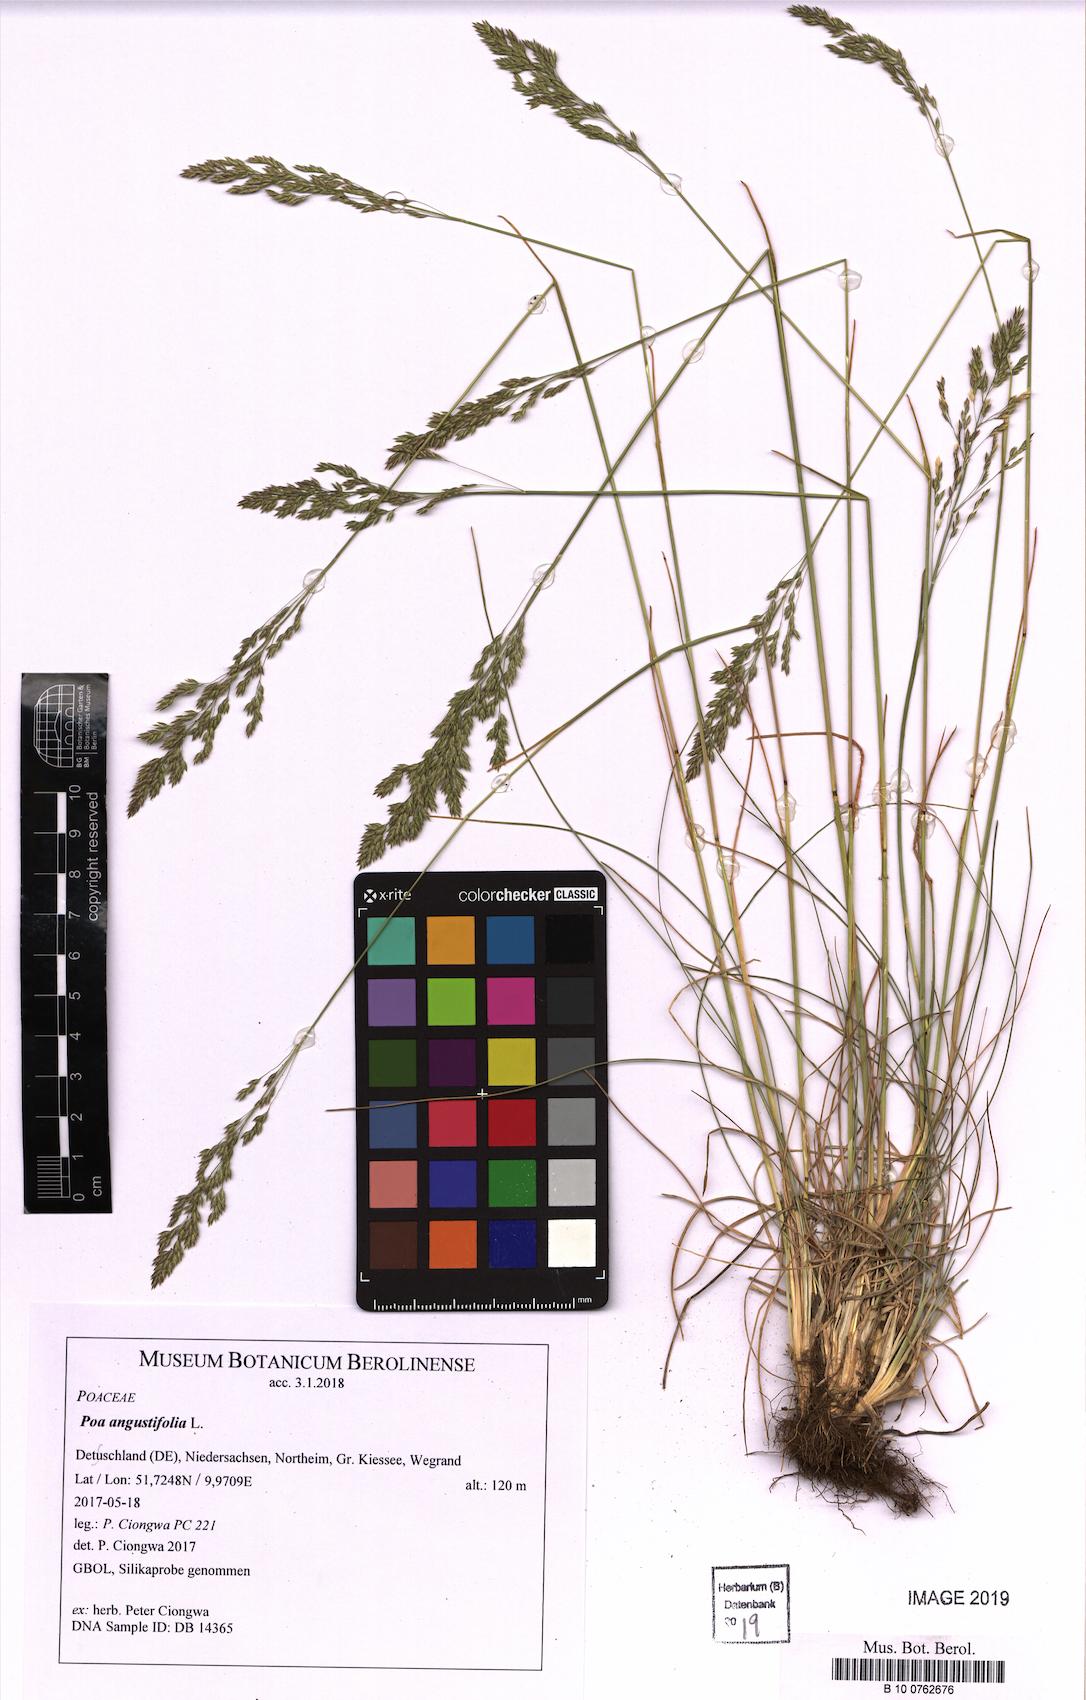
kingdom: Plantae
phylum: Tracheophyta
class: Liliopsida
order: Poales
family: Poaceae
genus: Poa
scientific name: Poa angustifolia
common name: Narrow-leaved meadow-grass
